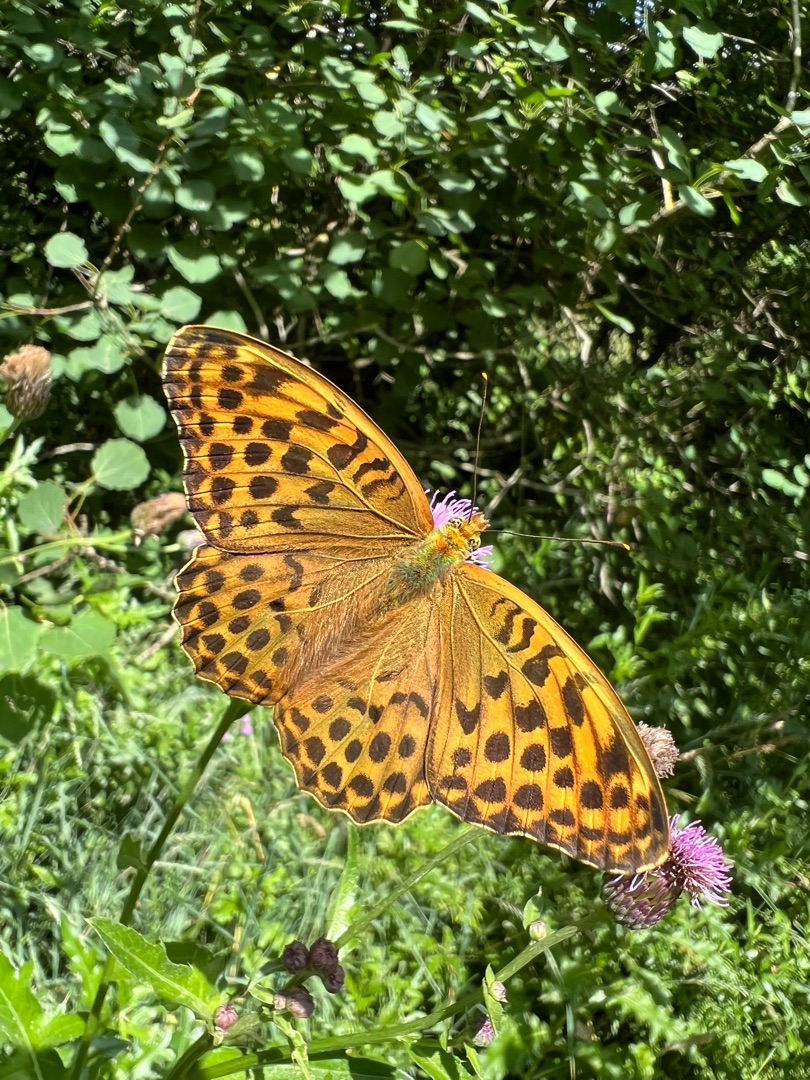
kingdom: Animalia
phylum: Arthropoda
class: Insecta
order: Lepidoptera
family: Nymphalidae
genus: Argynnis
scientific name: Argynnis paphia
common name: Kejserkåbe
